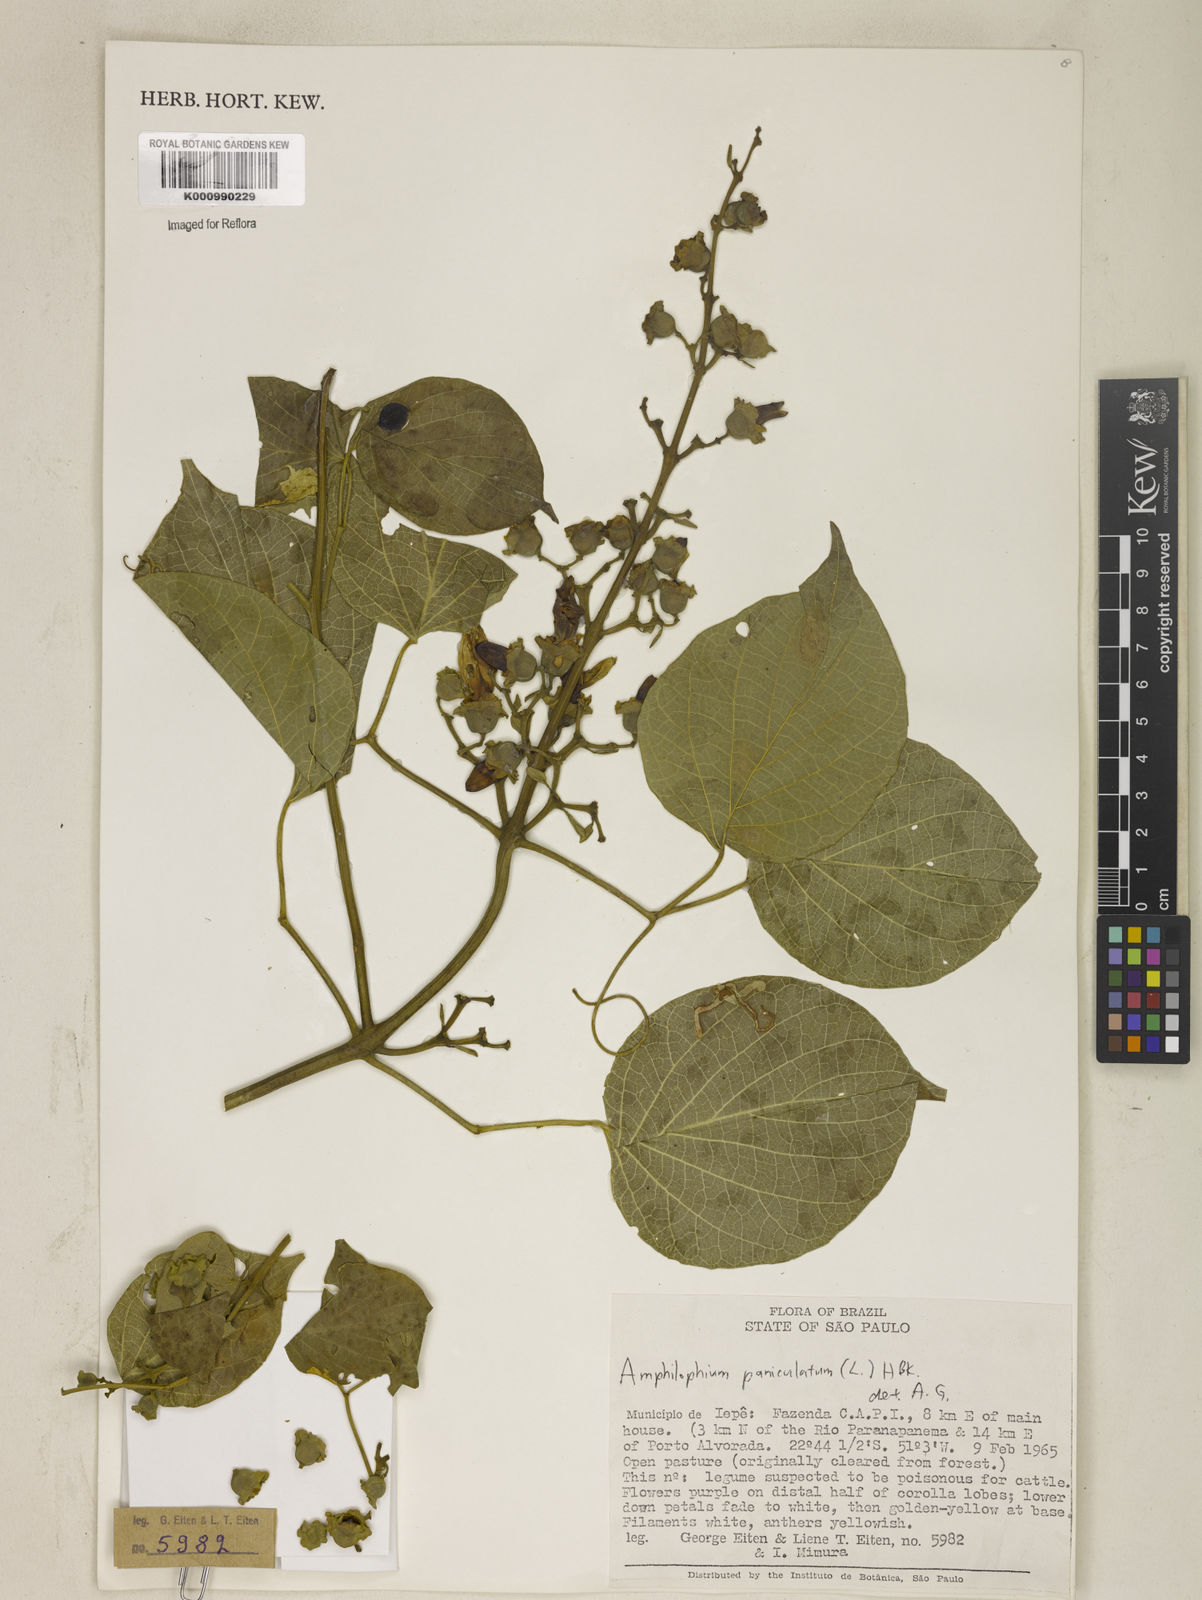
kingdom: Plantae
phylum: Tracheophyta
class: Magnoliopsida
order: Lamiales
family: Bignoniaceae
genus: Amphilophium
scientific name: Amphilophium paniculatum
